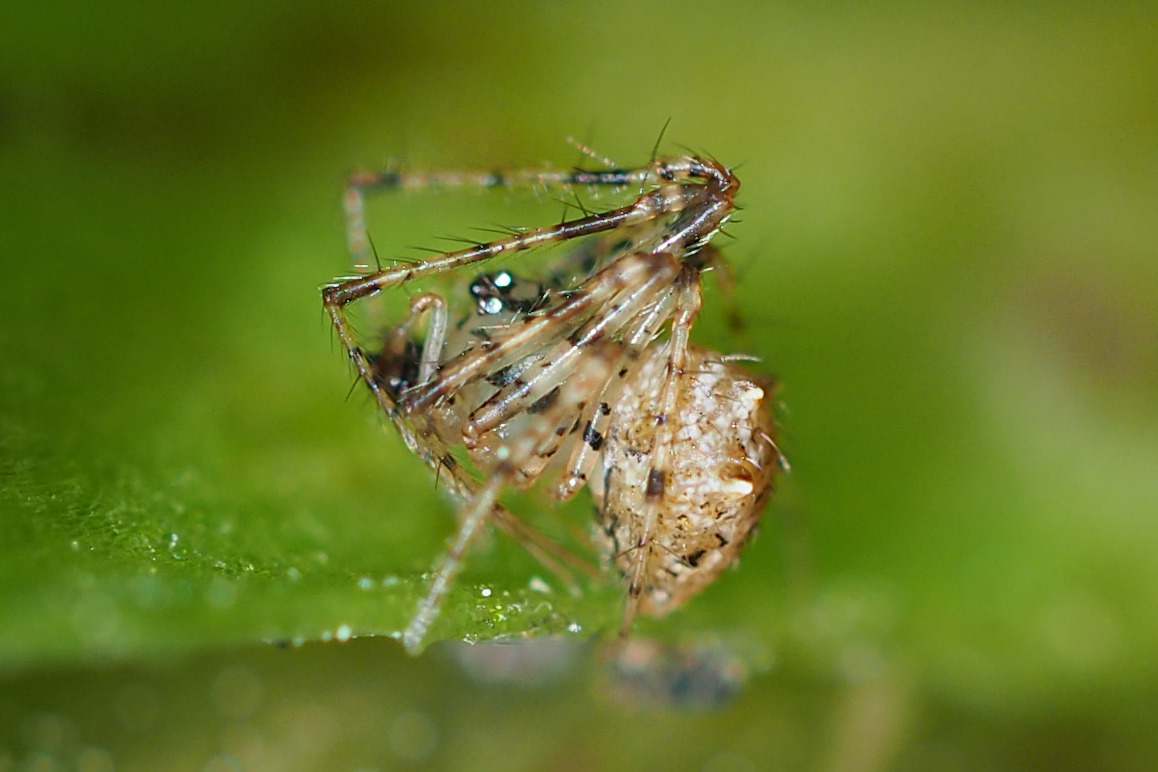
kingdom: Animalia
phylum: Arthropoda
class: Arachnida
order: Araneae
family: Mimetidae
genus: Ero
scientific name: Ero aphana
